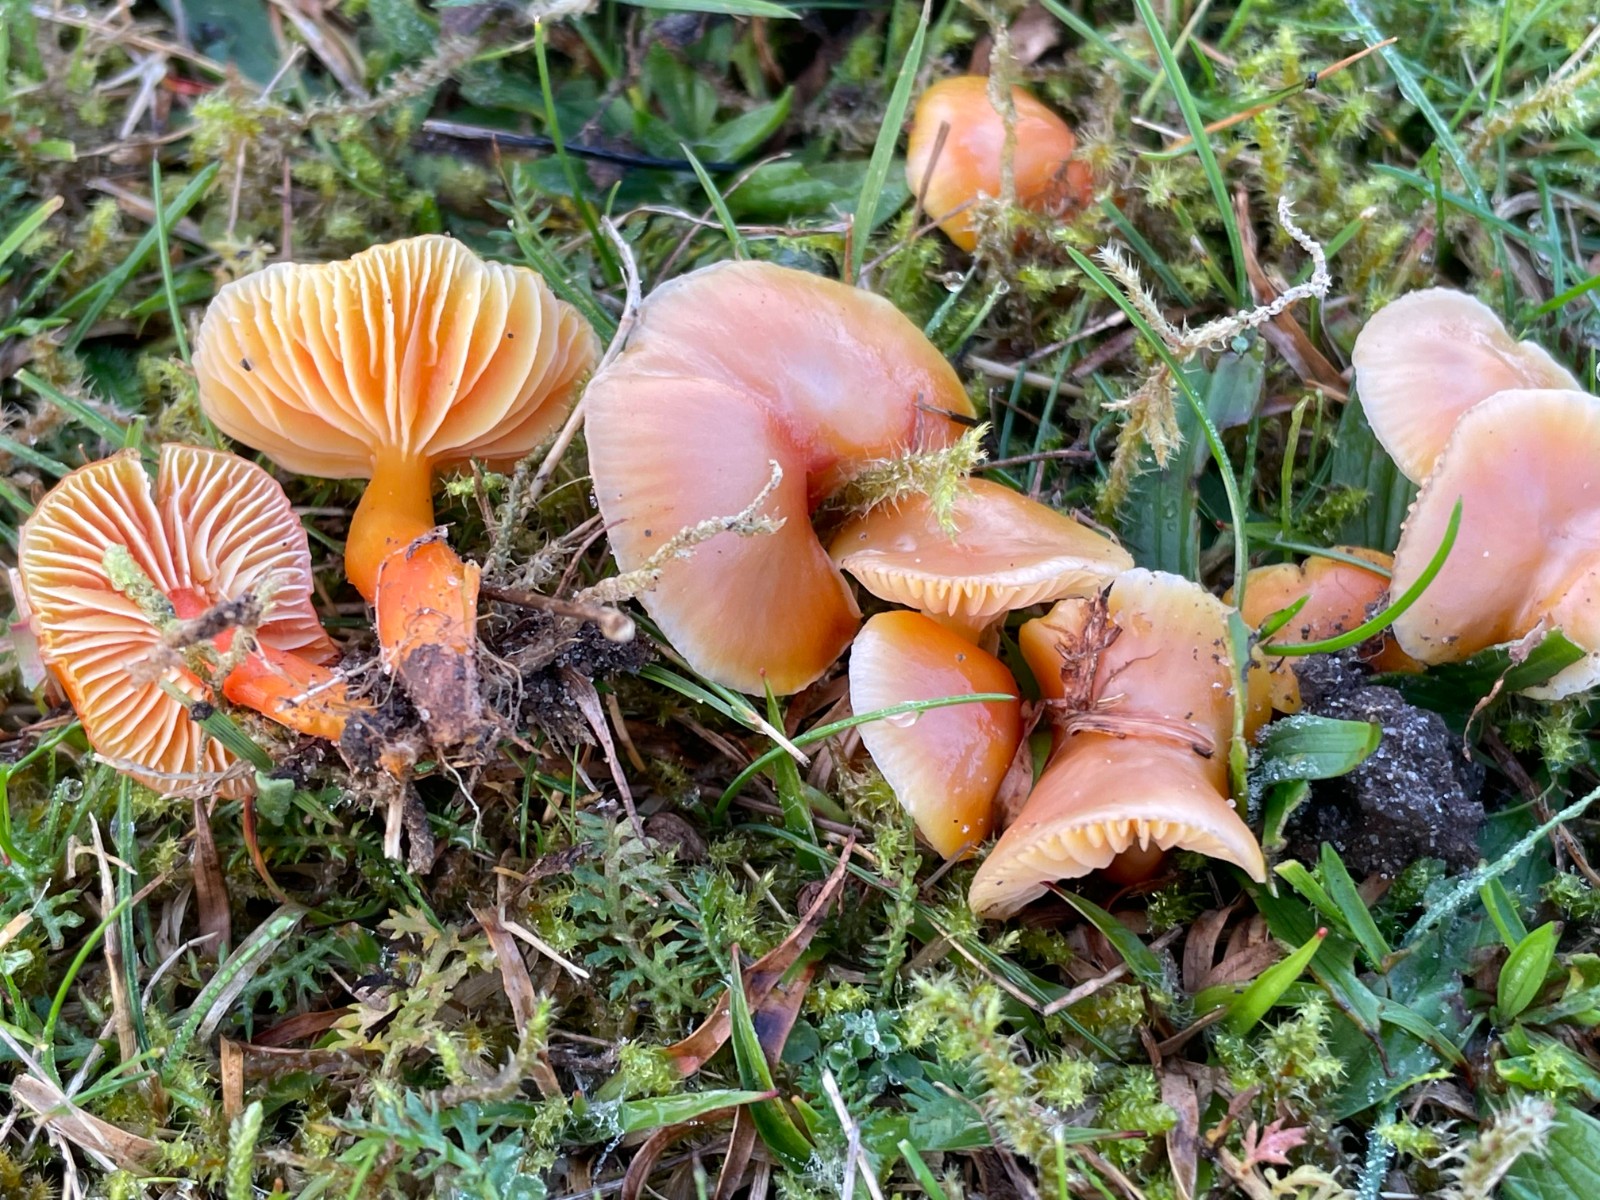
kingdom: Fungi
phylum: Basidiomycota
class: Agaricomycetes
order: Agaricales
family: Hygrophoraceae
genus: Hygrocybe
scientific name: Hygrocybe reidii
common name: honning-vokshat
